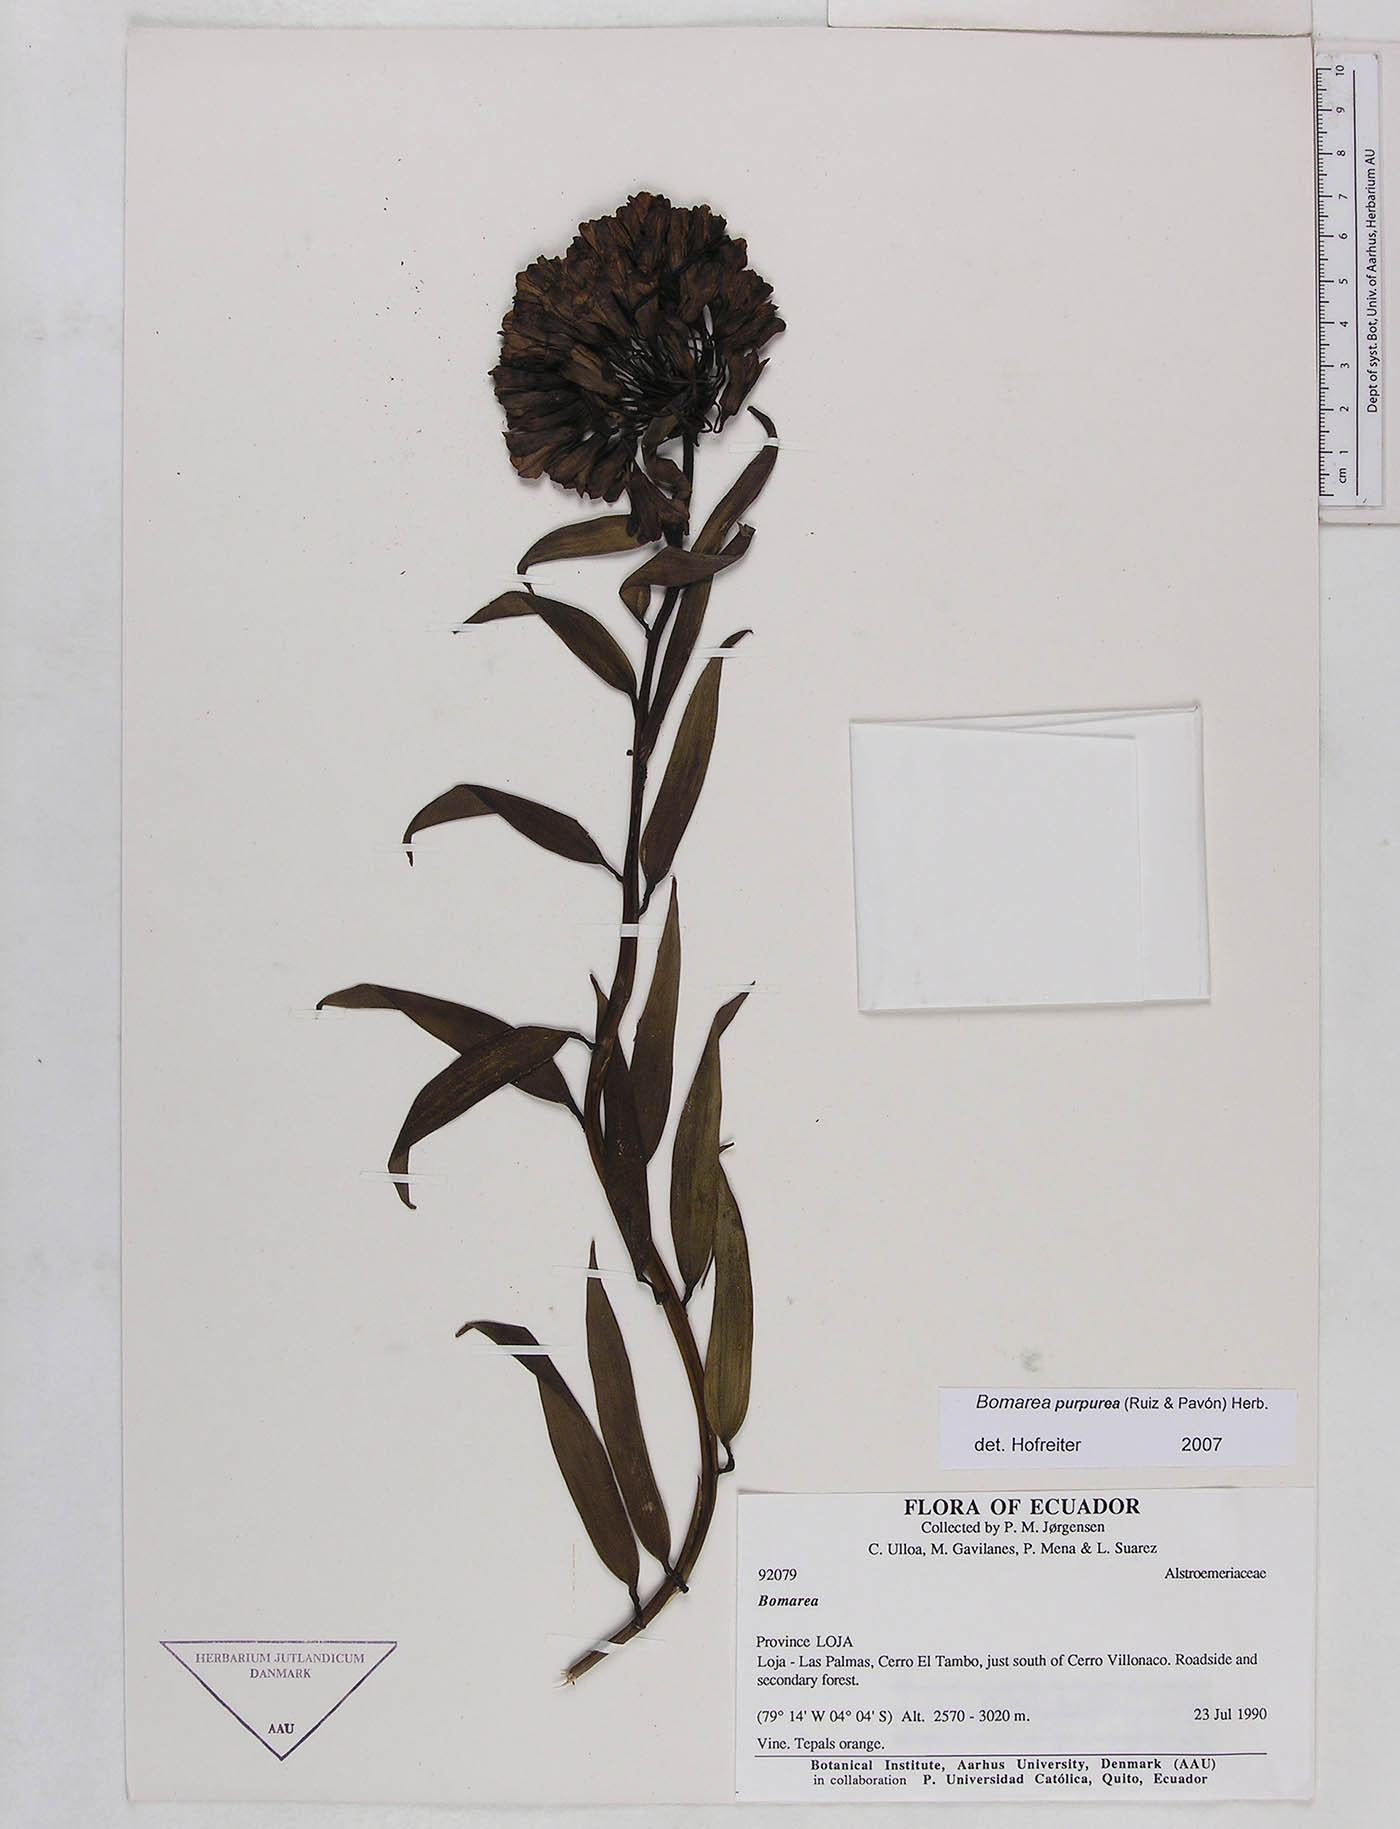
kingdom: Plantae
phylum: Tracheophyta
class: Liliopsida
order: Liliales
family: Alstroemeriaceae
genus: Bomarea
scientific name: Bomarea purpurea
